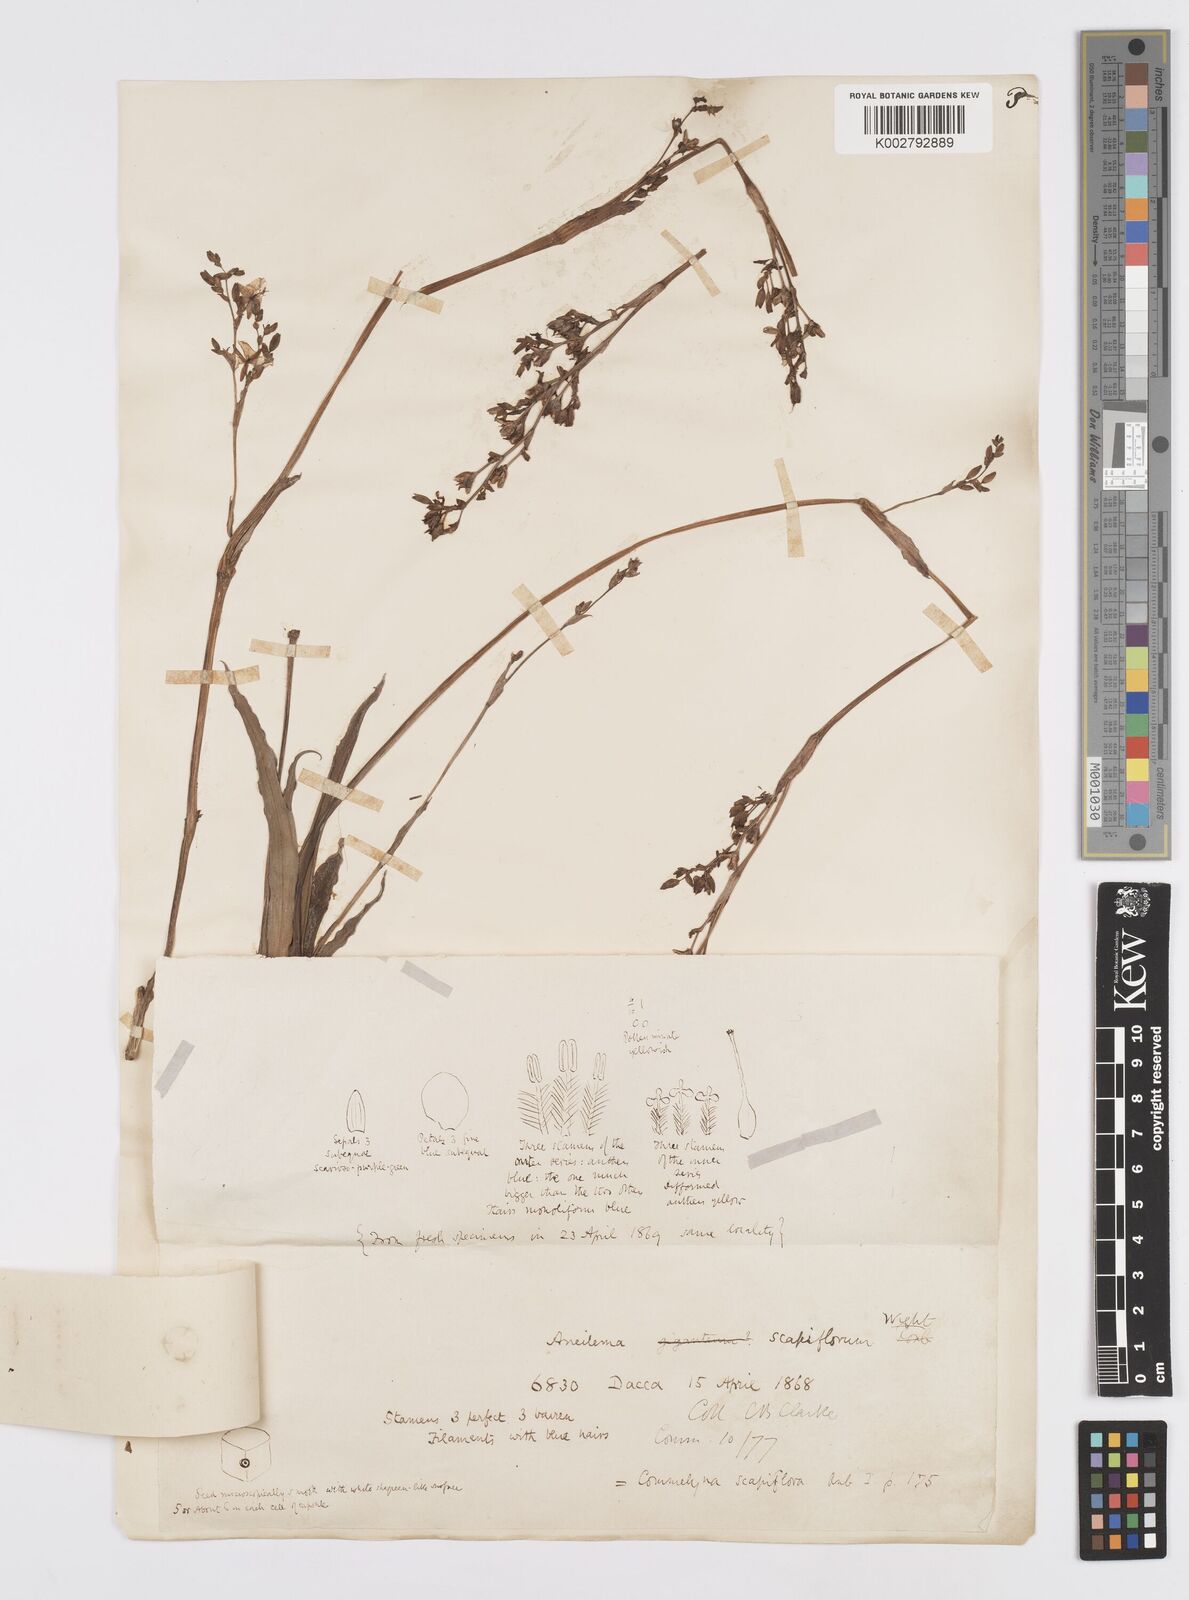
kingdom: Plantae
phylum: Tracheophyta
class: Liliopsida
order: Commelinales
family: Commelinaceae
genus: Murdannia
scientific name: Murdannia
